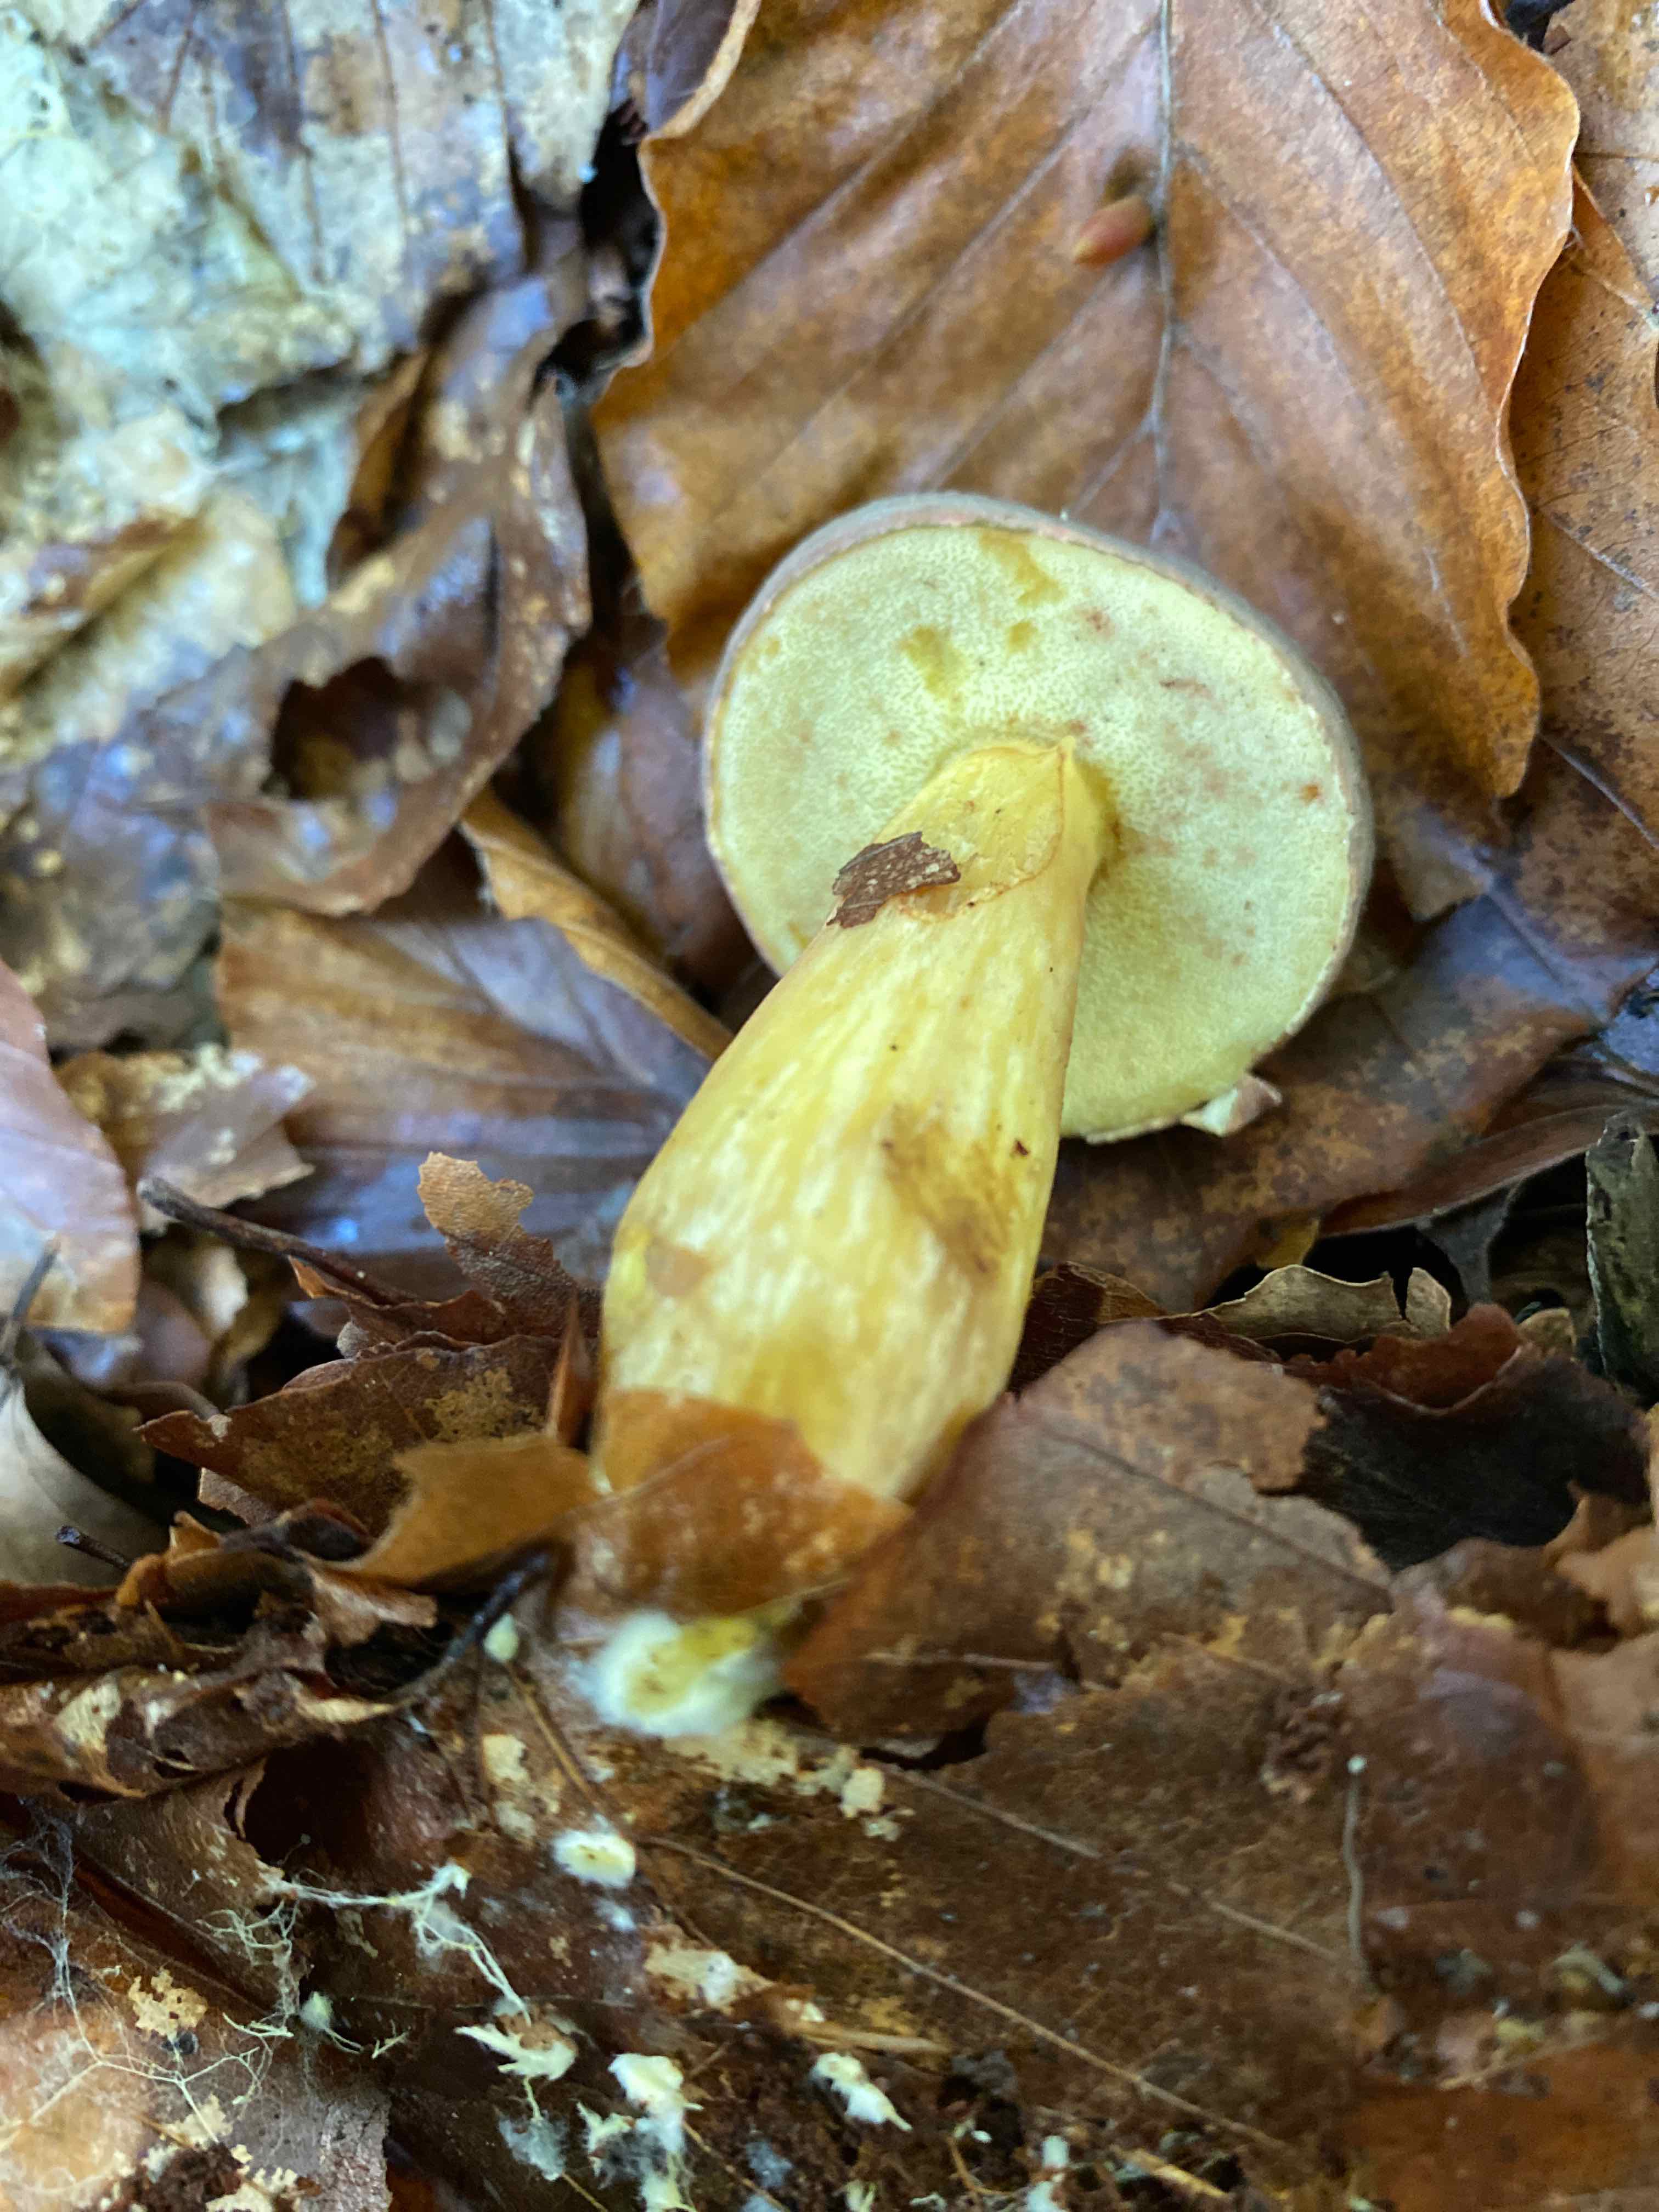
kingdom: Fungi
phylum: Basidiomycota
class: Agaricomycetes
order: Boletales
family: Boletaceae
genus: Xerocomellus
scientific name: Xerocomellus pruinatus
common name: dugget rørhat
